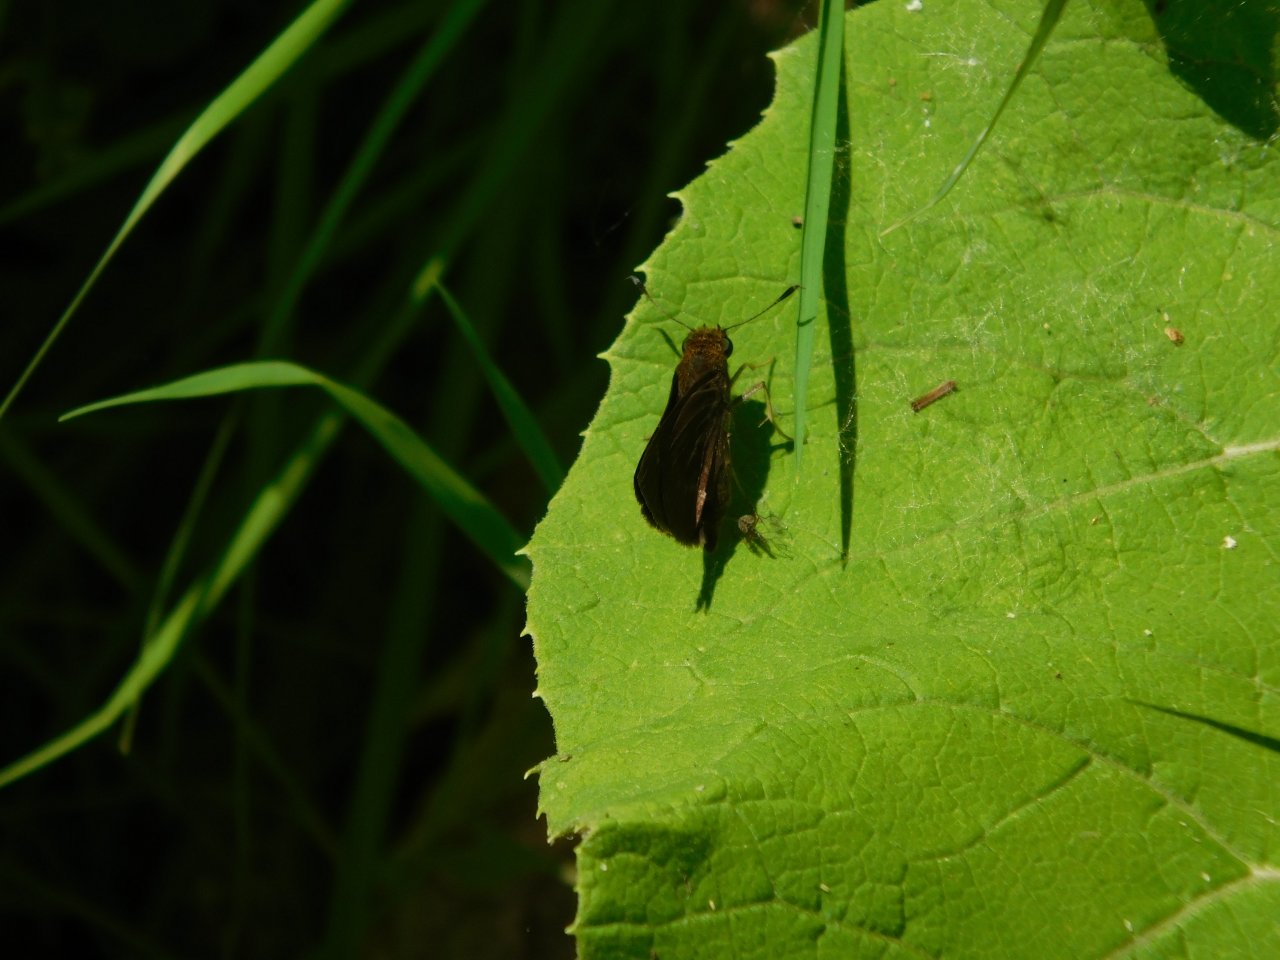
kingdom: Animalia
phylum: Arthropoda
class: Insecta
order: Lepidoptera
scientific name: Lepidoptera
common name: Butterflies
